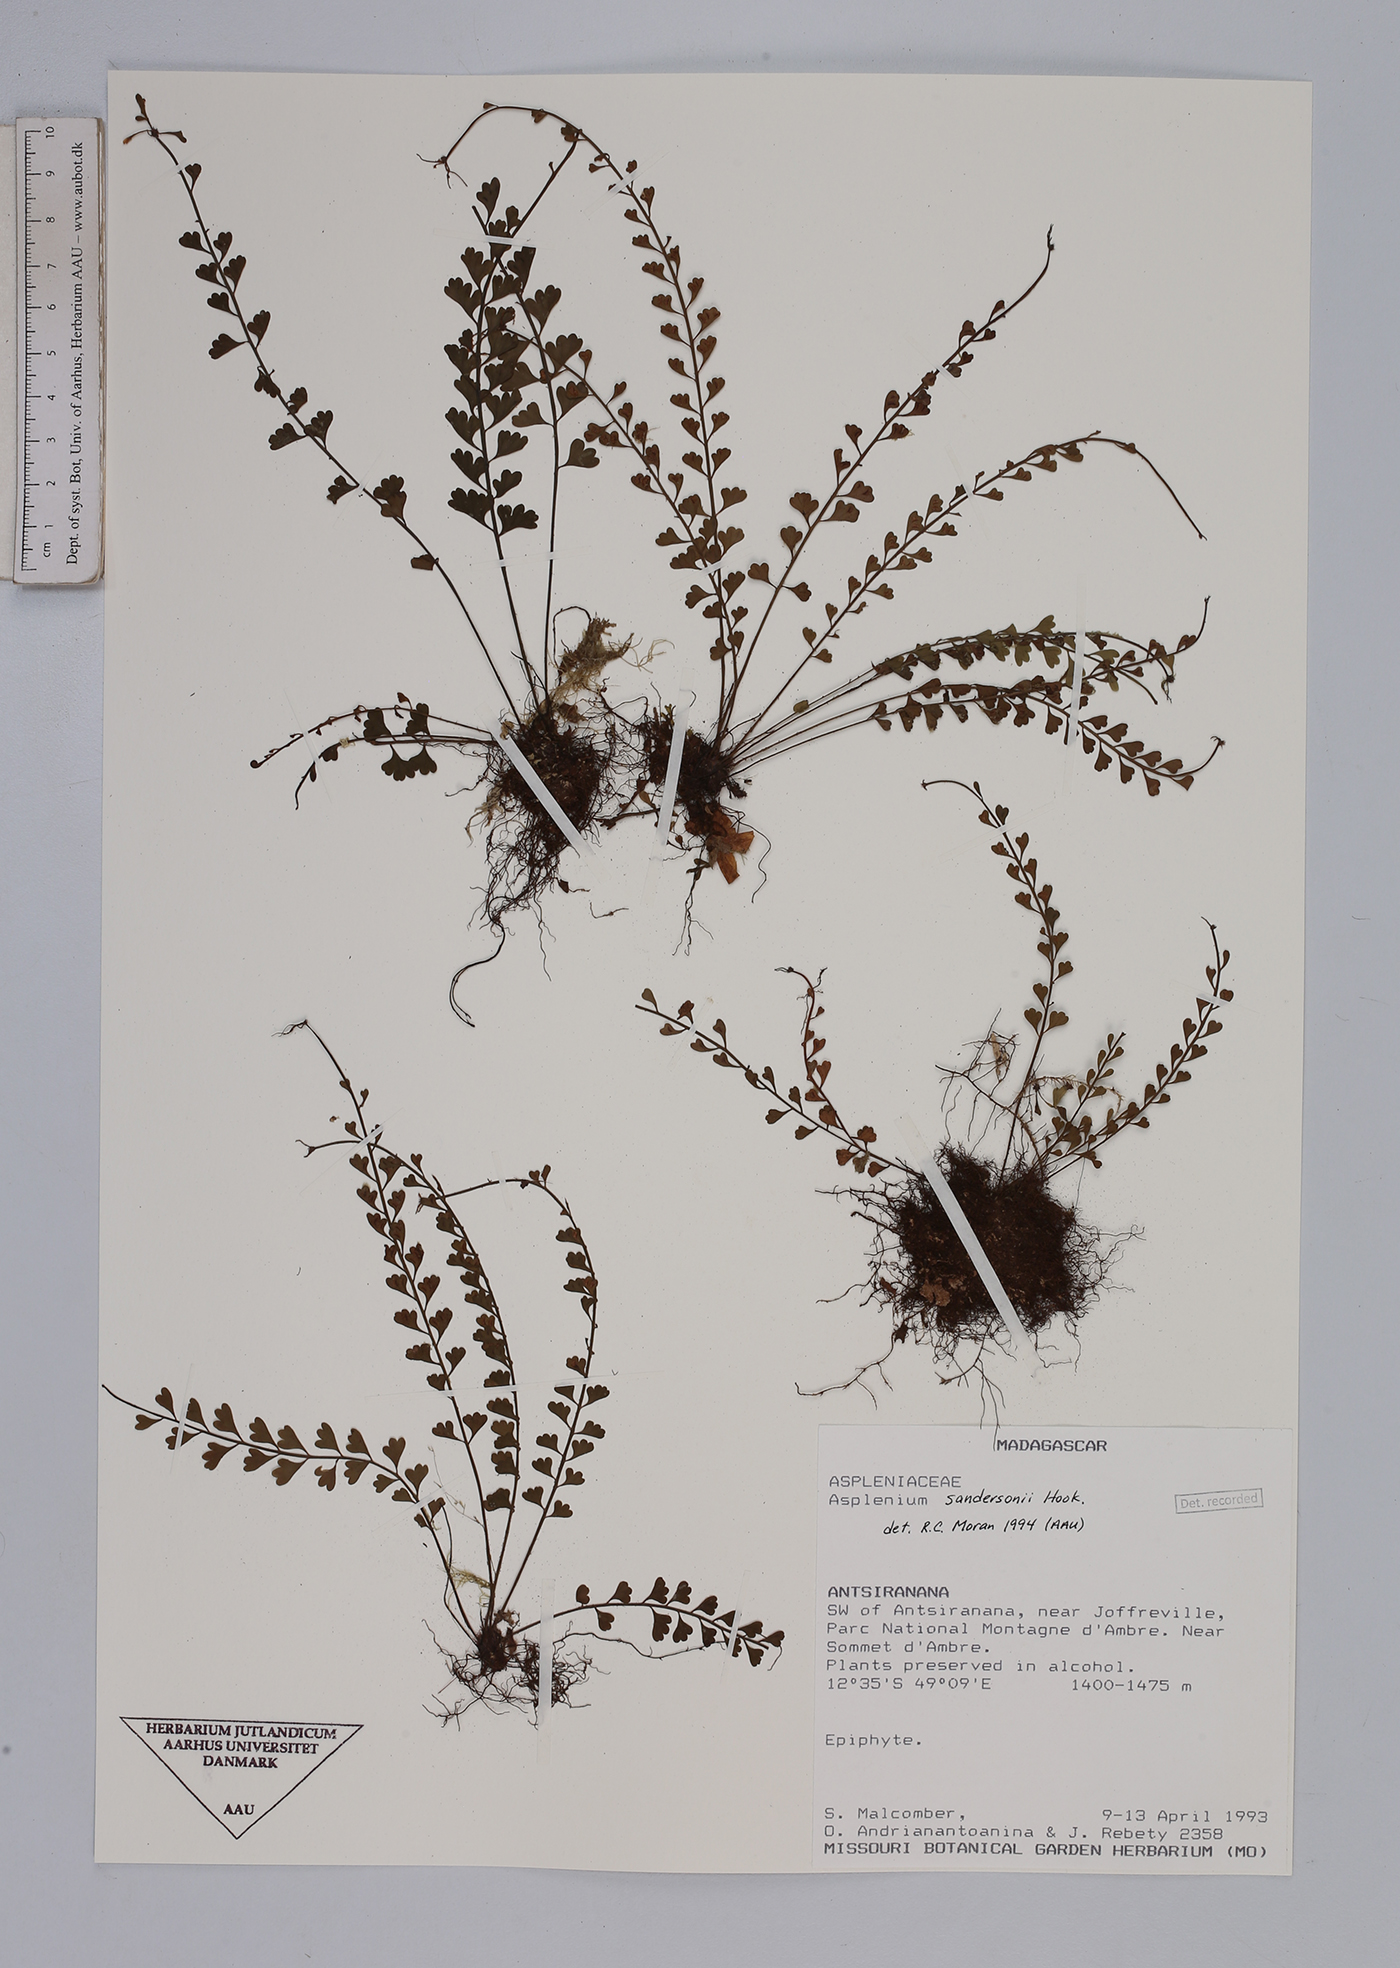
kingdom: Plantae
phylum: Tracheophyta
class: Polypodiopsida
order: Polypodiales
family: Aspleniaceae
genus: Asplenium
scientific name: Asplenium sandersonii
